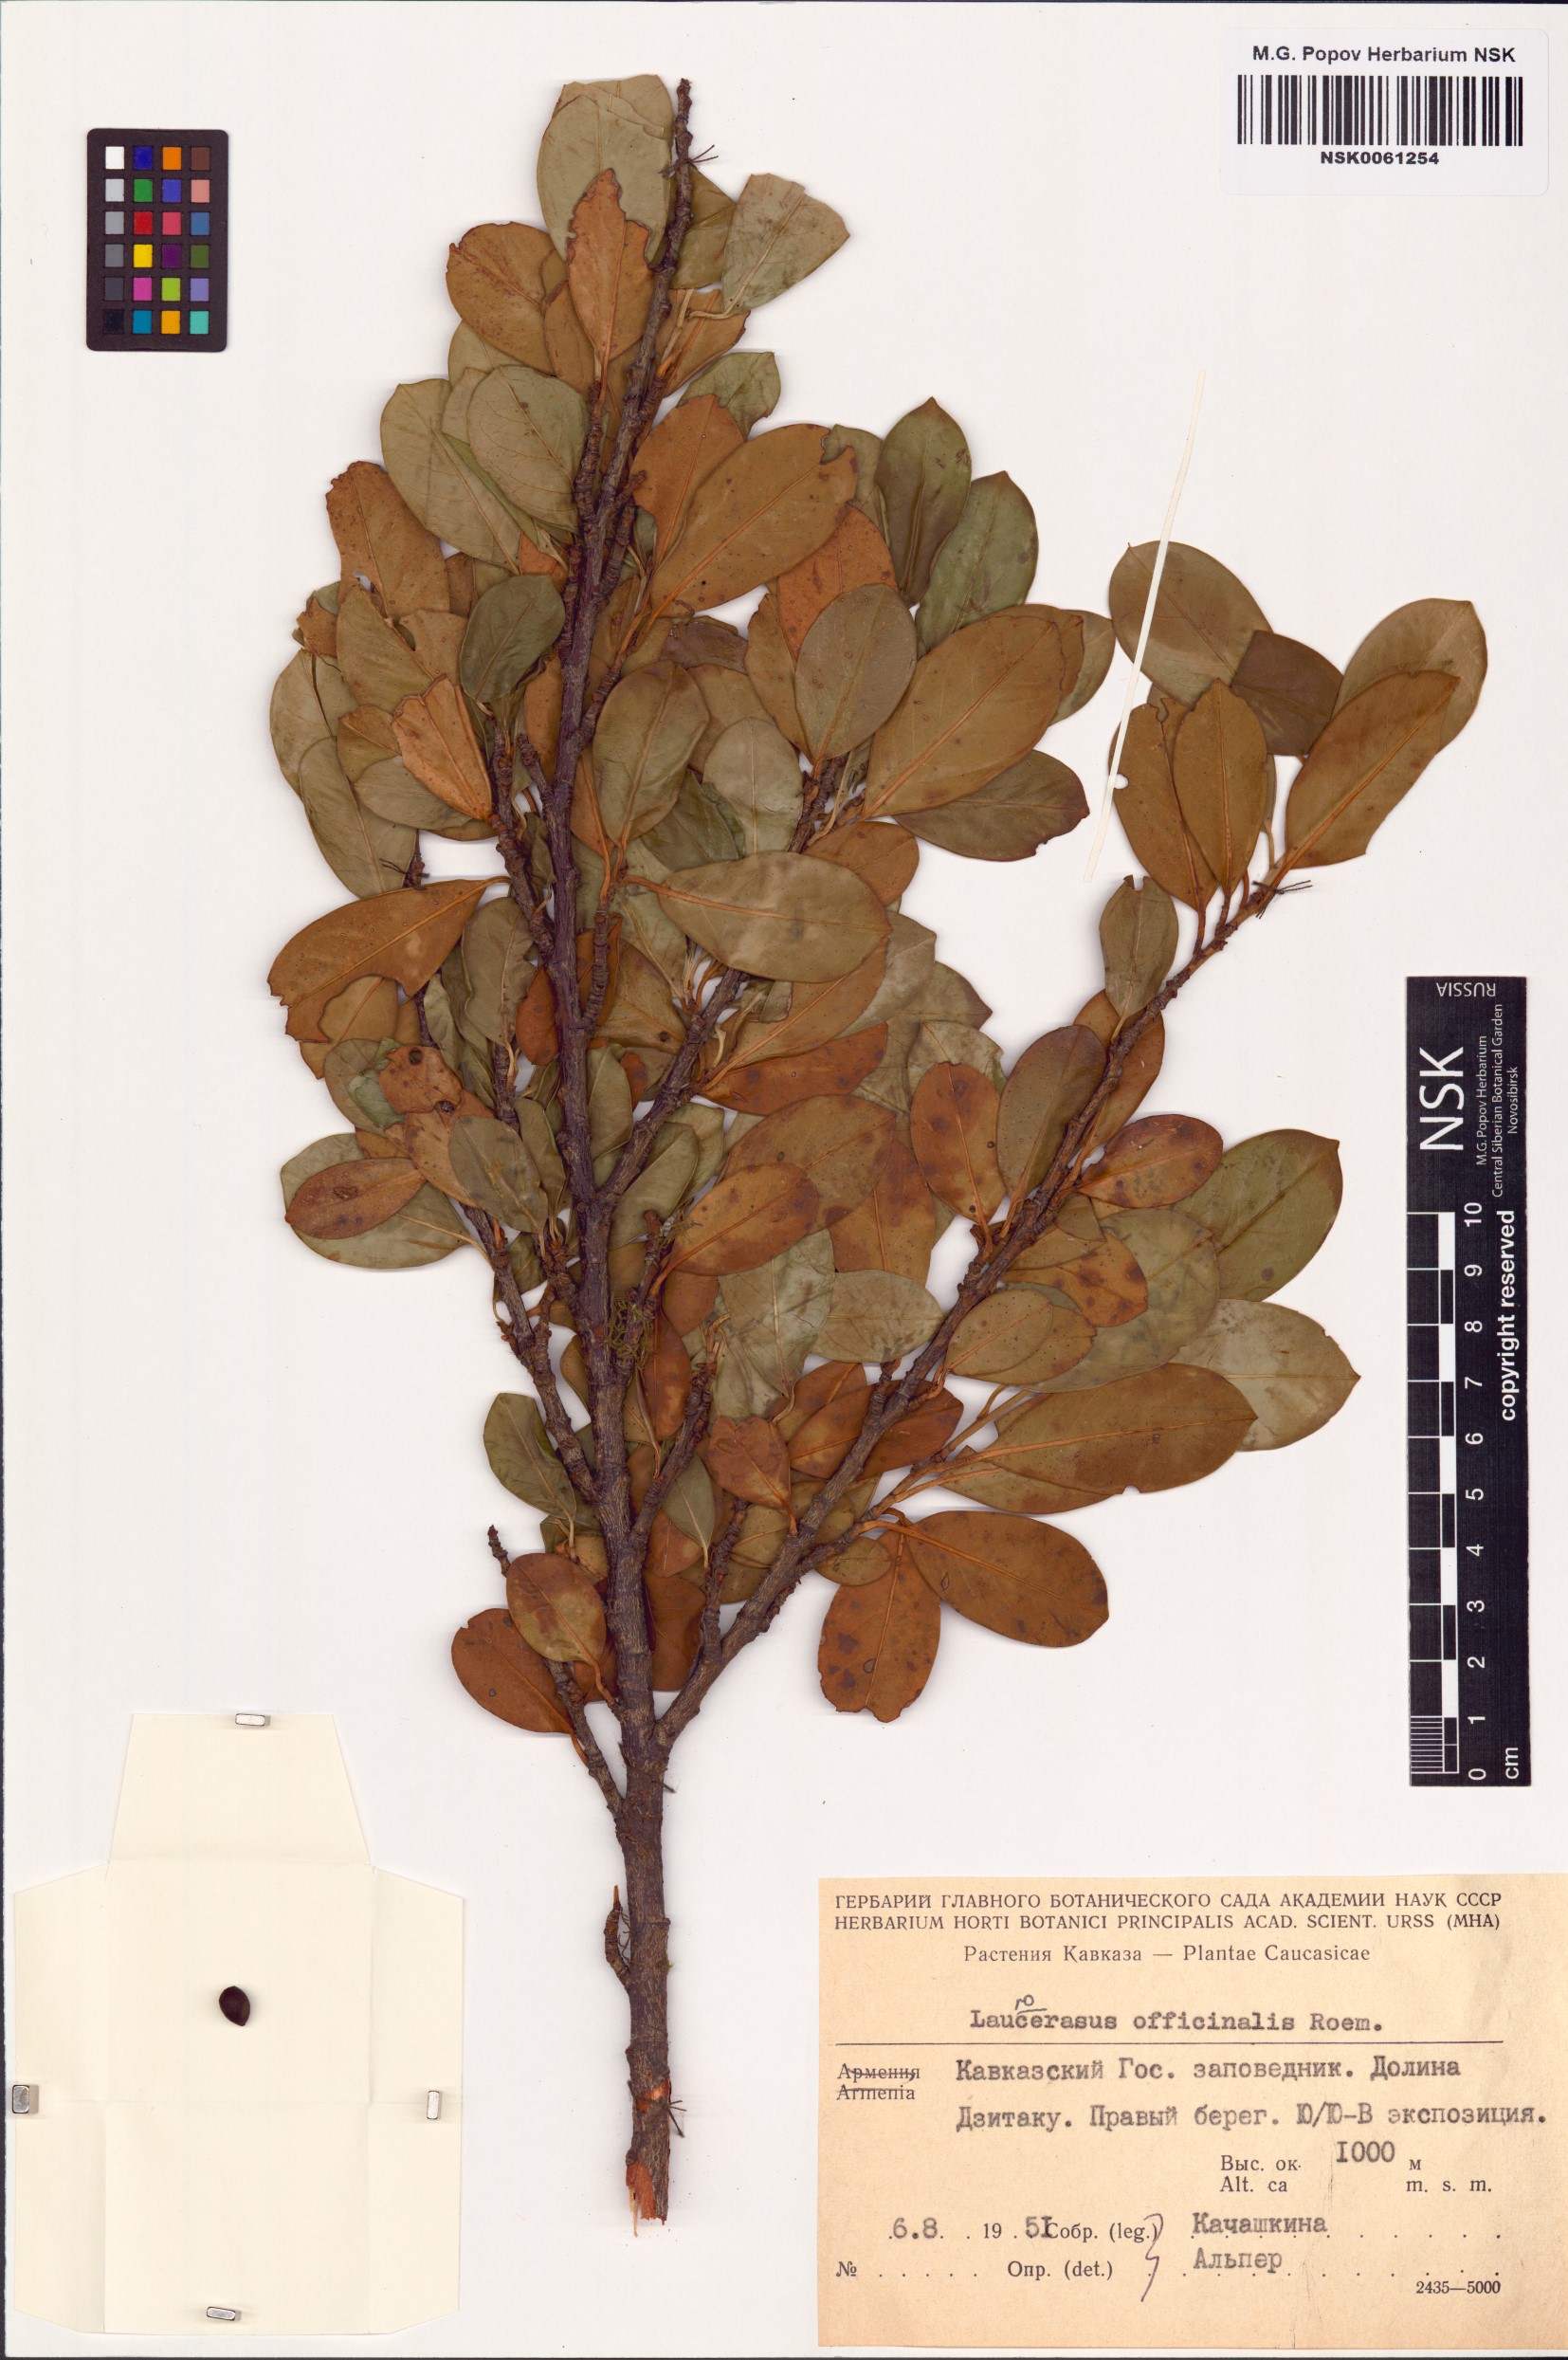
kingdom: Plantae
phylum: Tracheophyta
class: Magnoliopsida
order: Rosales
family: Rosaceae
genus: Prunus
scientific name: Prunus laurocerasus
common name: Cherry laurel
